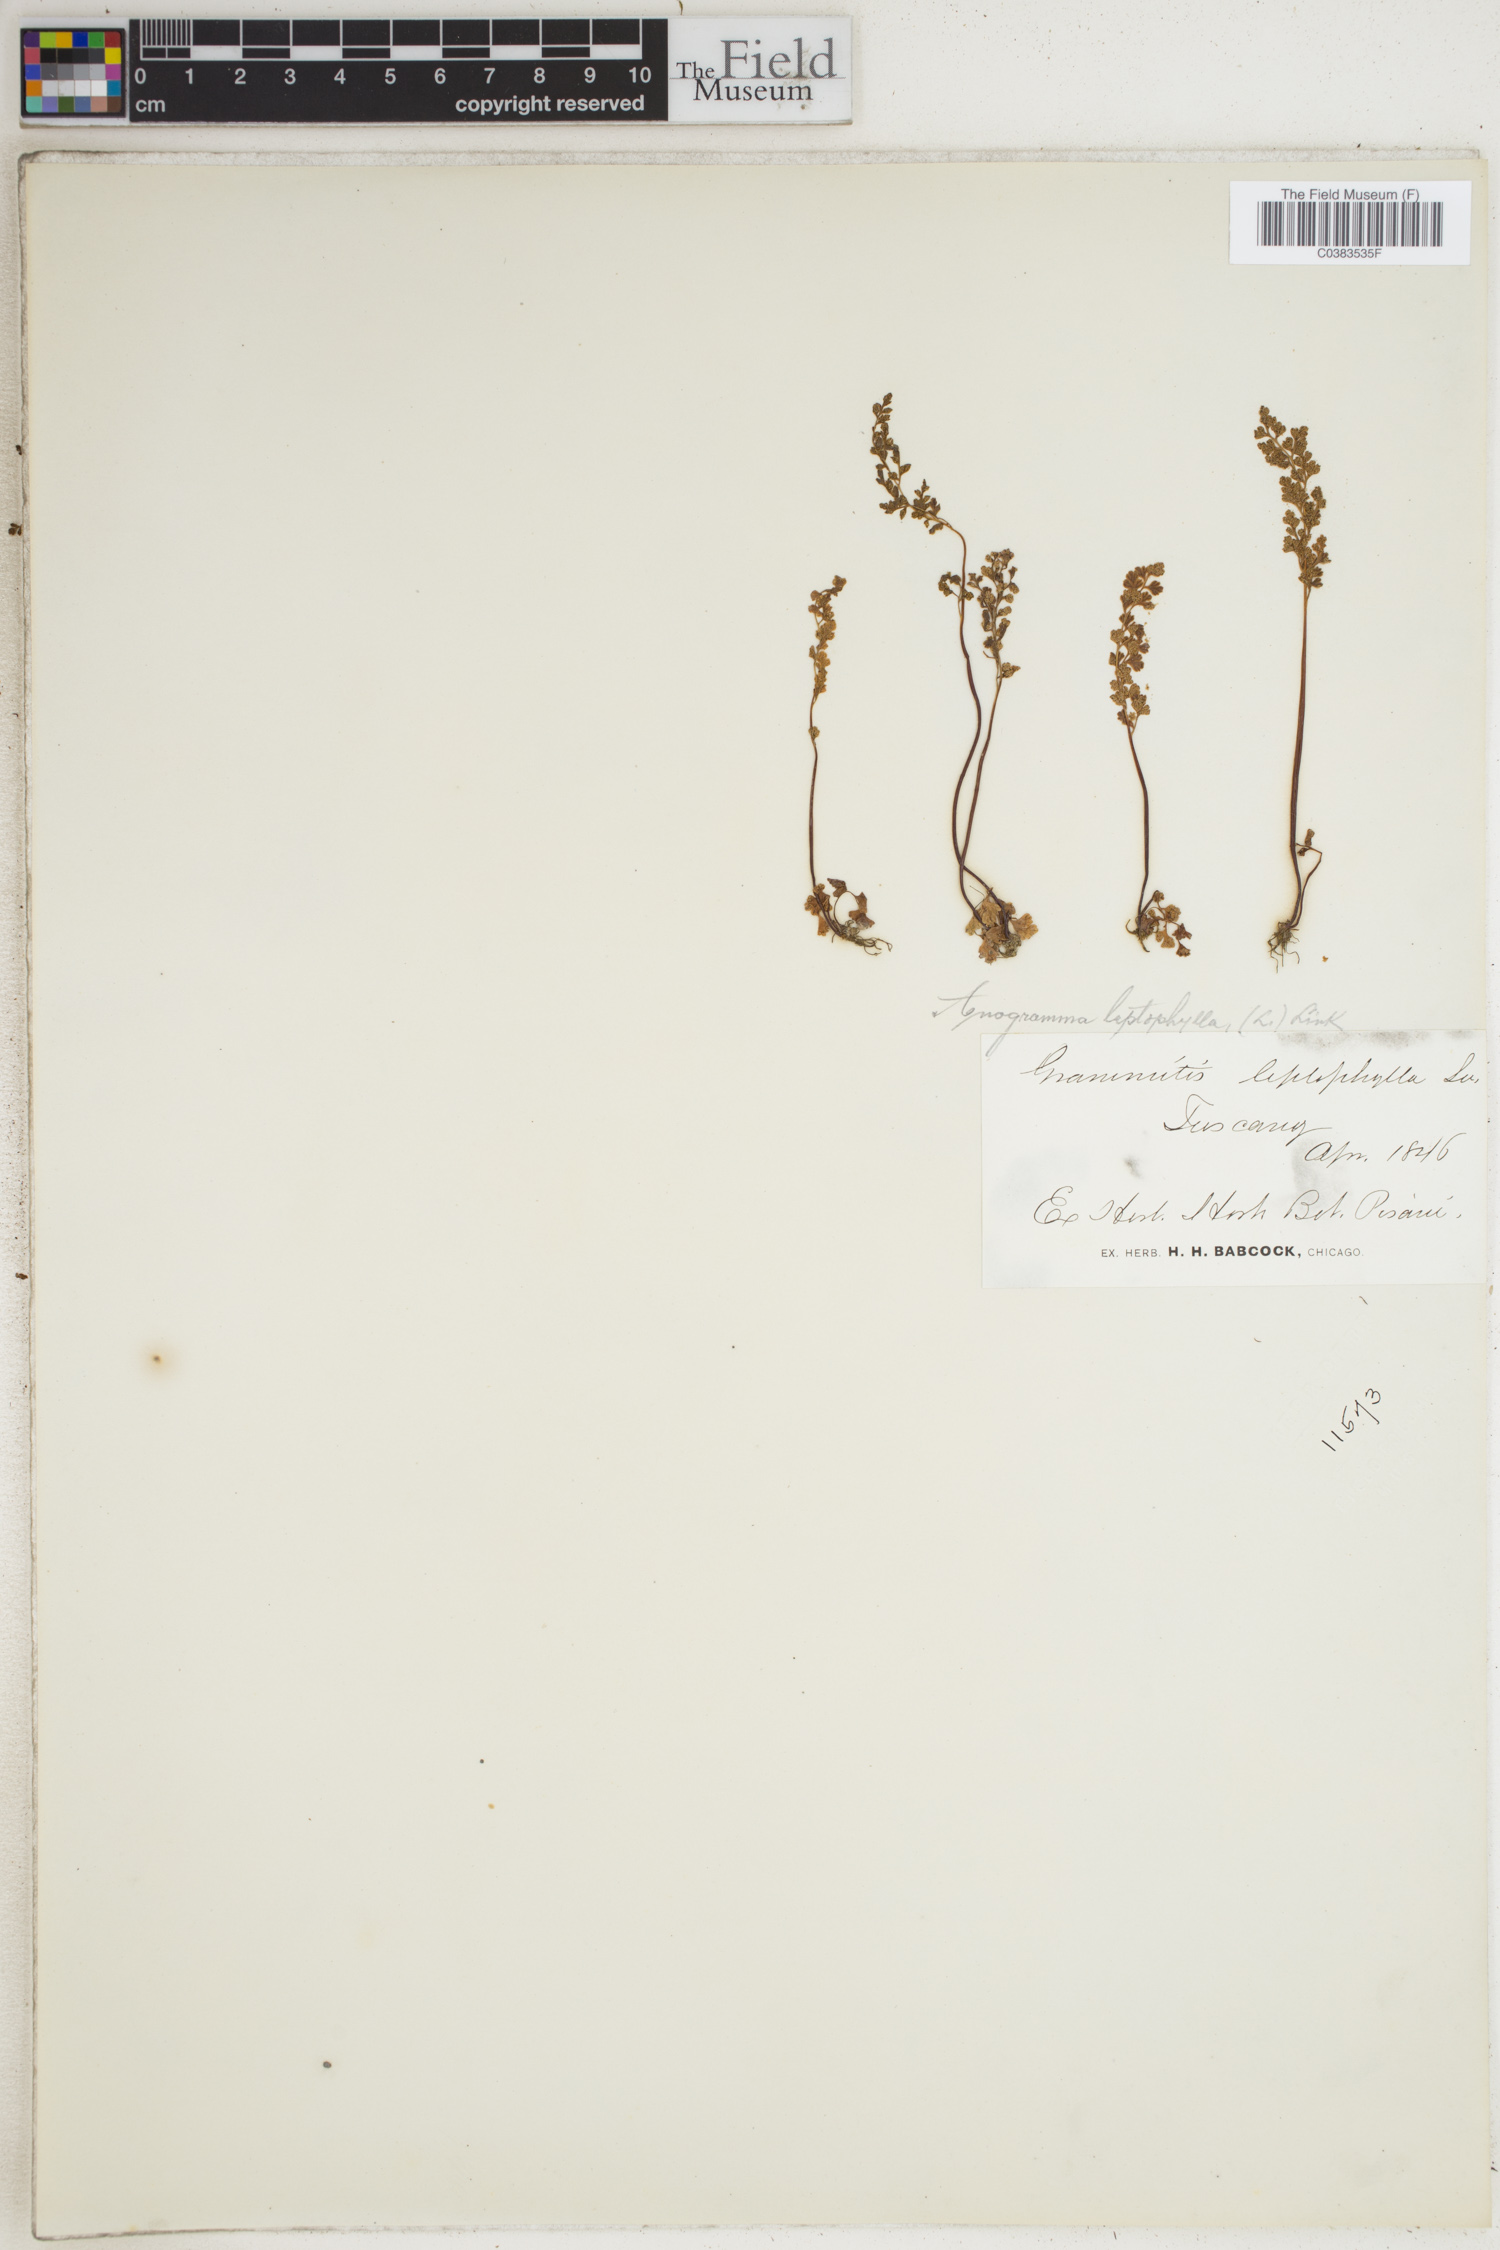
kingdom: Plantae
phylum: Tracheophyta
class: Polypodiopsida
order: Polypodiales
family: Pteridaceae
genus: Anogramma
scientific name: Anogramma leptophylla
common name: Jersey fern
